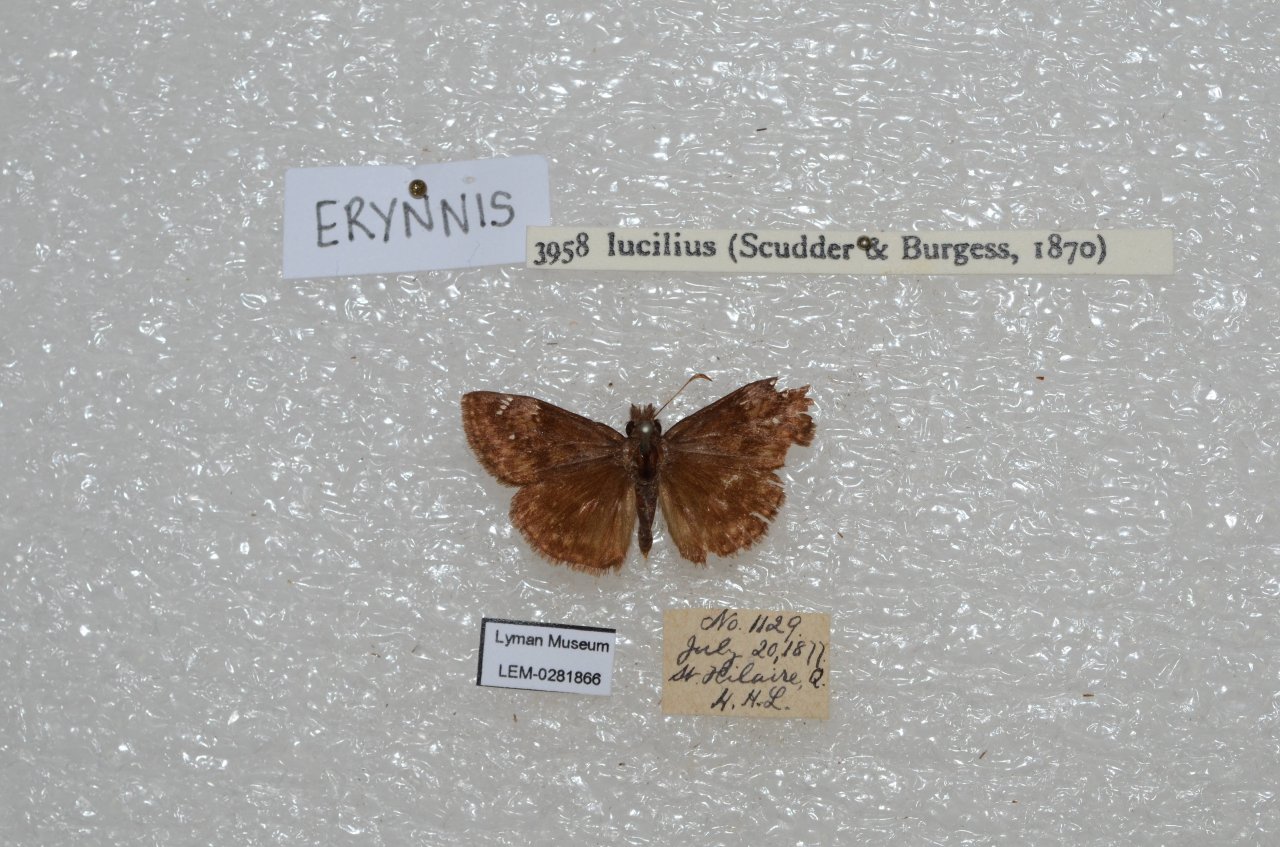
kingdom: Animalia
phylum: Arthropoda
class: Insecta
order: Lepidoptera
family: Hesperiidae
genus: Gesta
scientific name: Gesta
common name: Columbine Duskywing
